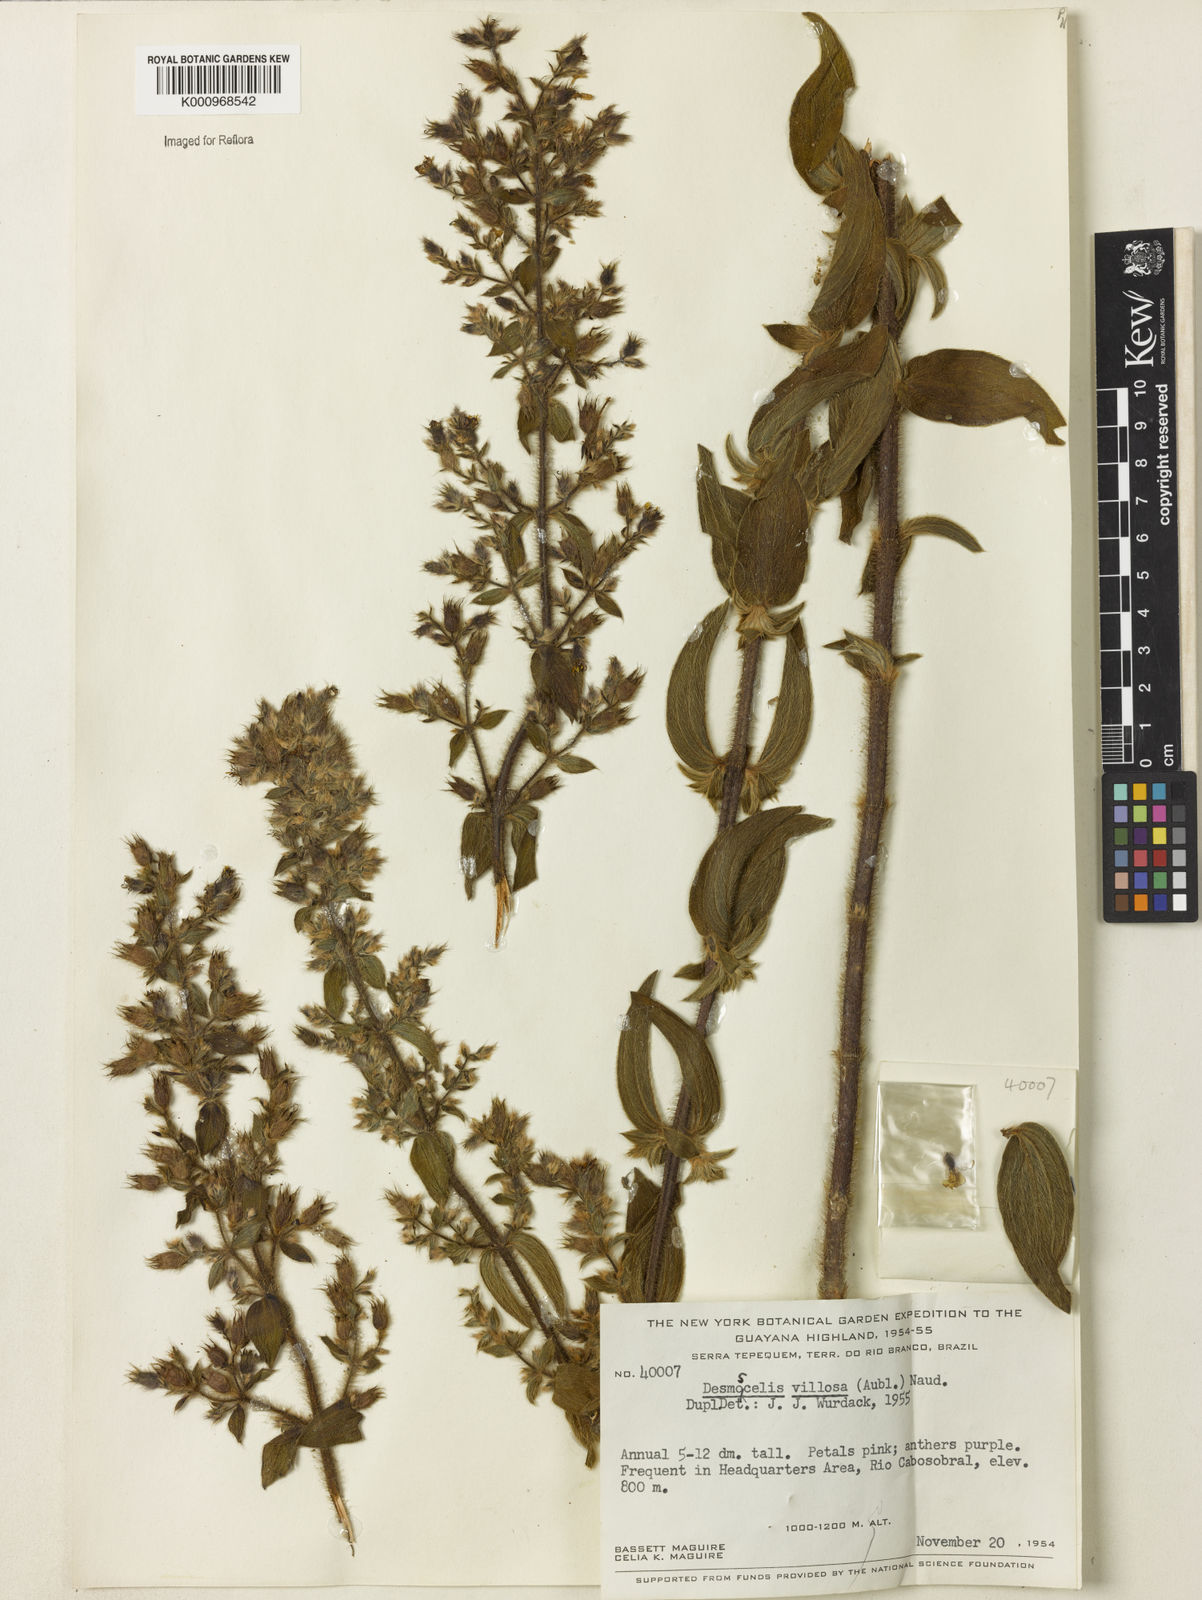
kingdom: Plantae
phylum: Tracheophyta
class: Magnoliopsida
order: Myrtales
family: Melastomataceae
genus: Desmoscelis
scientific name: Desmoscelis villosa
